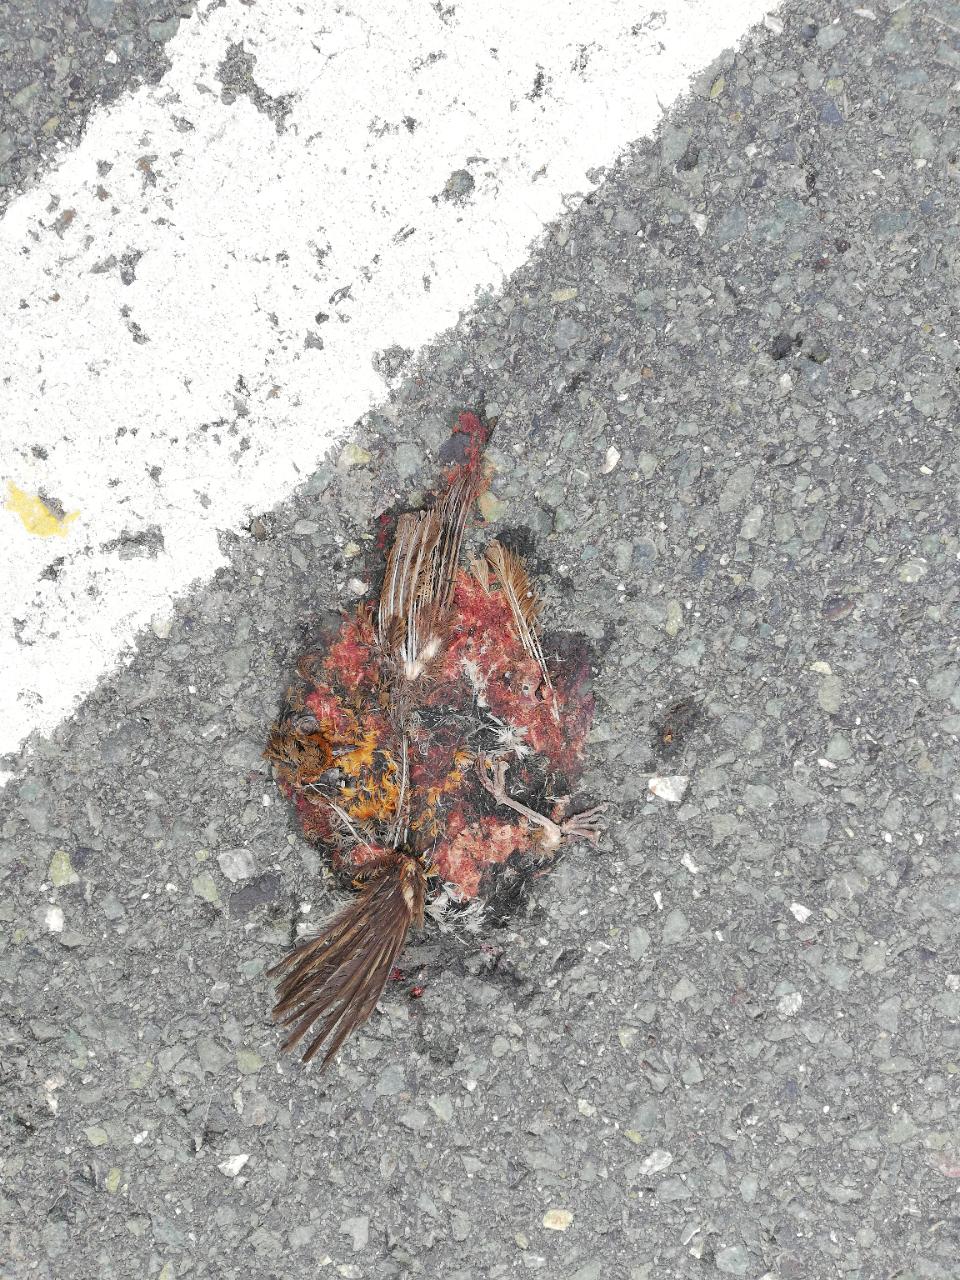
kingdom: Animalia
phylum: Chordata
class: Aves
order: Passeriformes
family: Muscicapidae
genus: Erithacus
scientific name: Erithacus rubecula
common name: European robin
